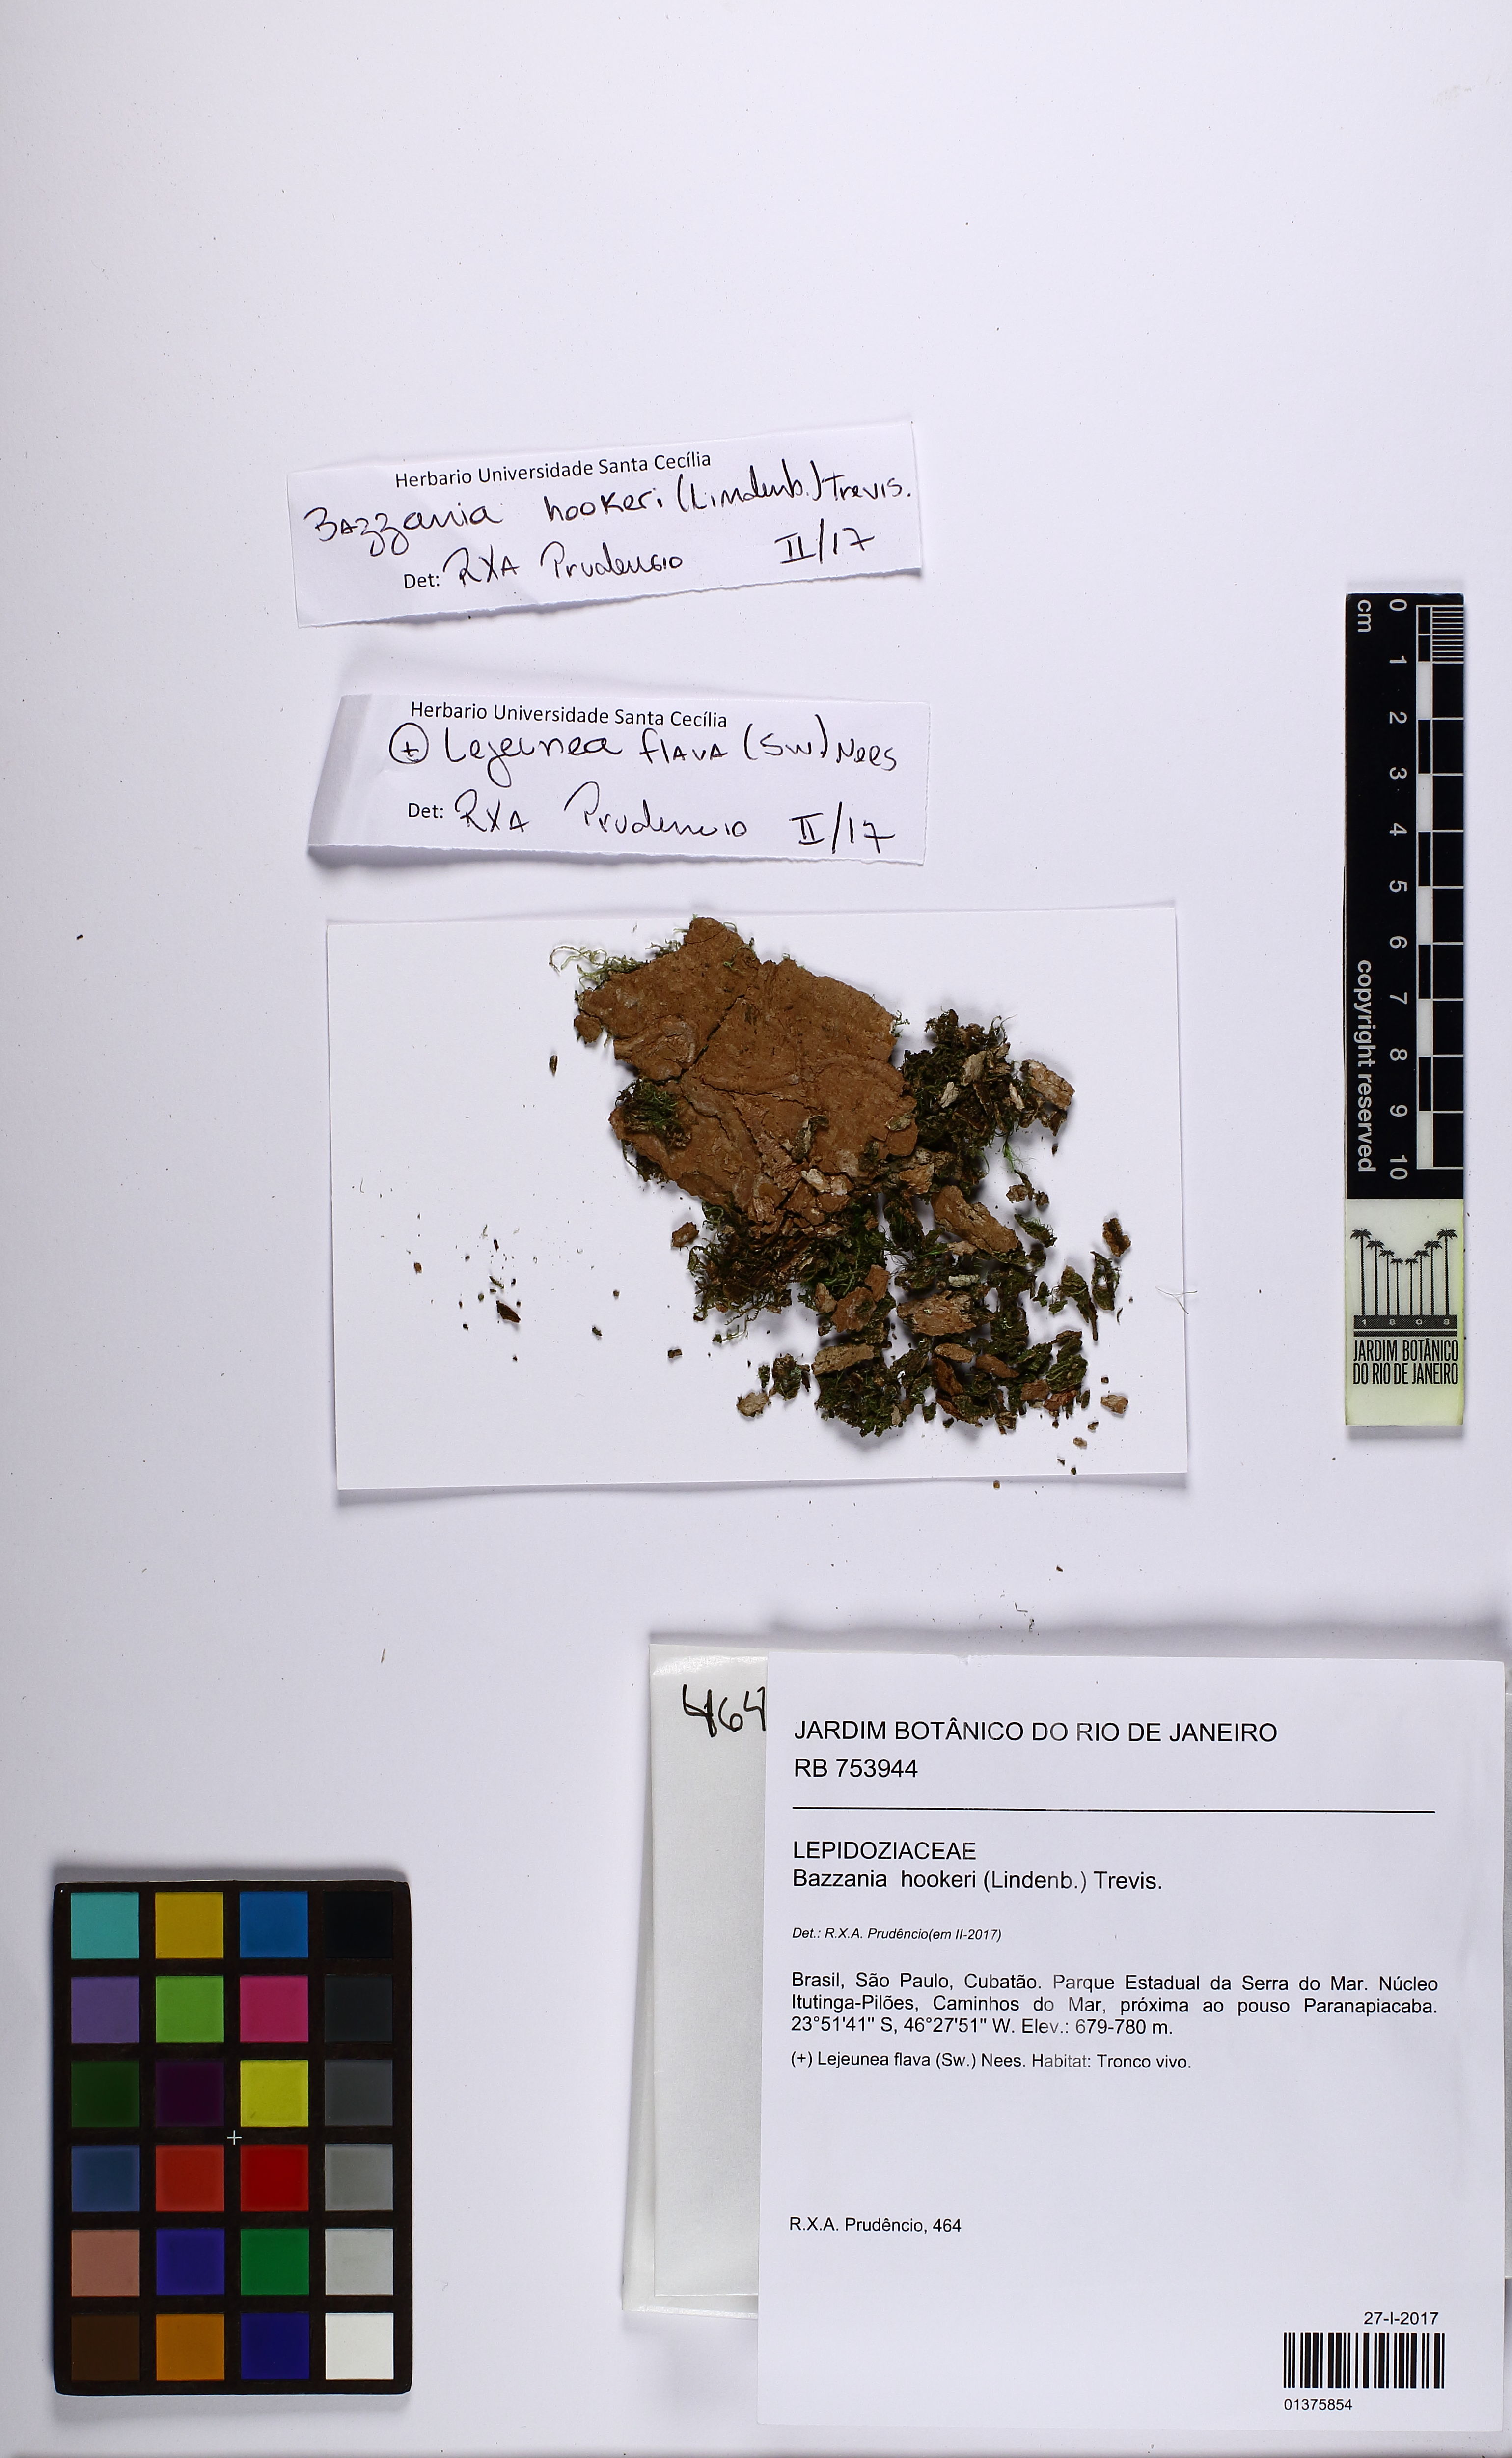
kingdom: Plantae
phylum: Marchantiophyta
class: Jungermanniopsida
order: Jungermanniales
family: Lepidoziaceae
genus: Bazzania
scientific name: Bazzania hookeri
